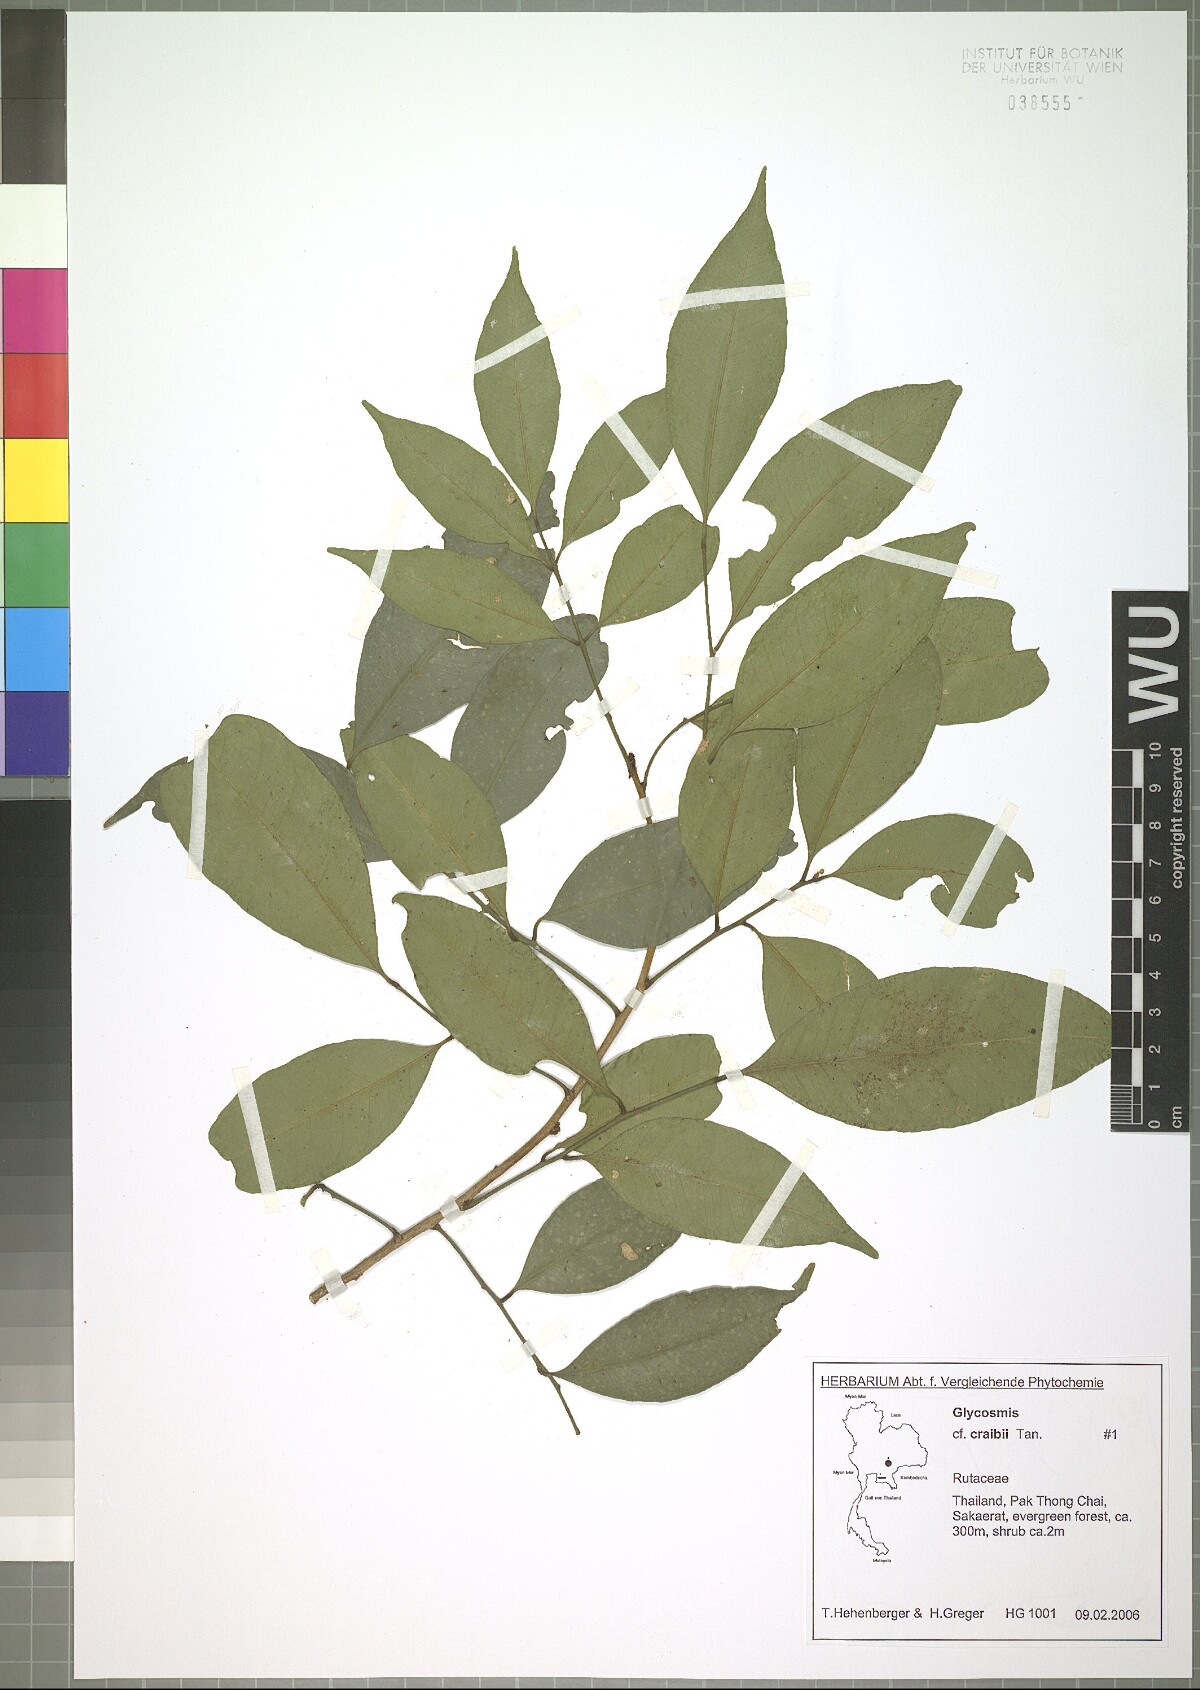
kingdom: Plantae
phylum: Tracheophyta
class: Magnoliopsida
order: Sapindales
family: Rutaceae
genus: Glycosmis
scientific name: Glycosmis craibii
